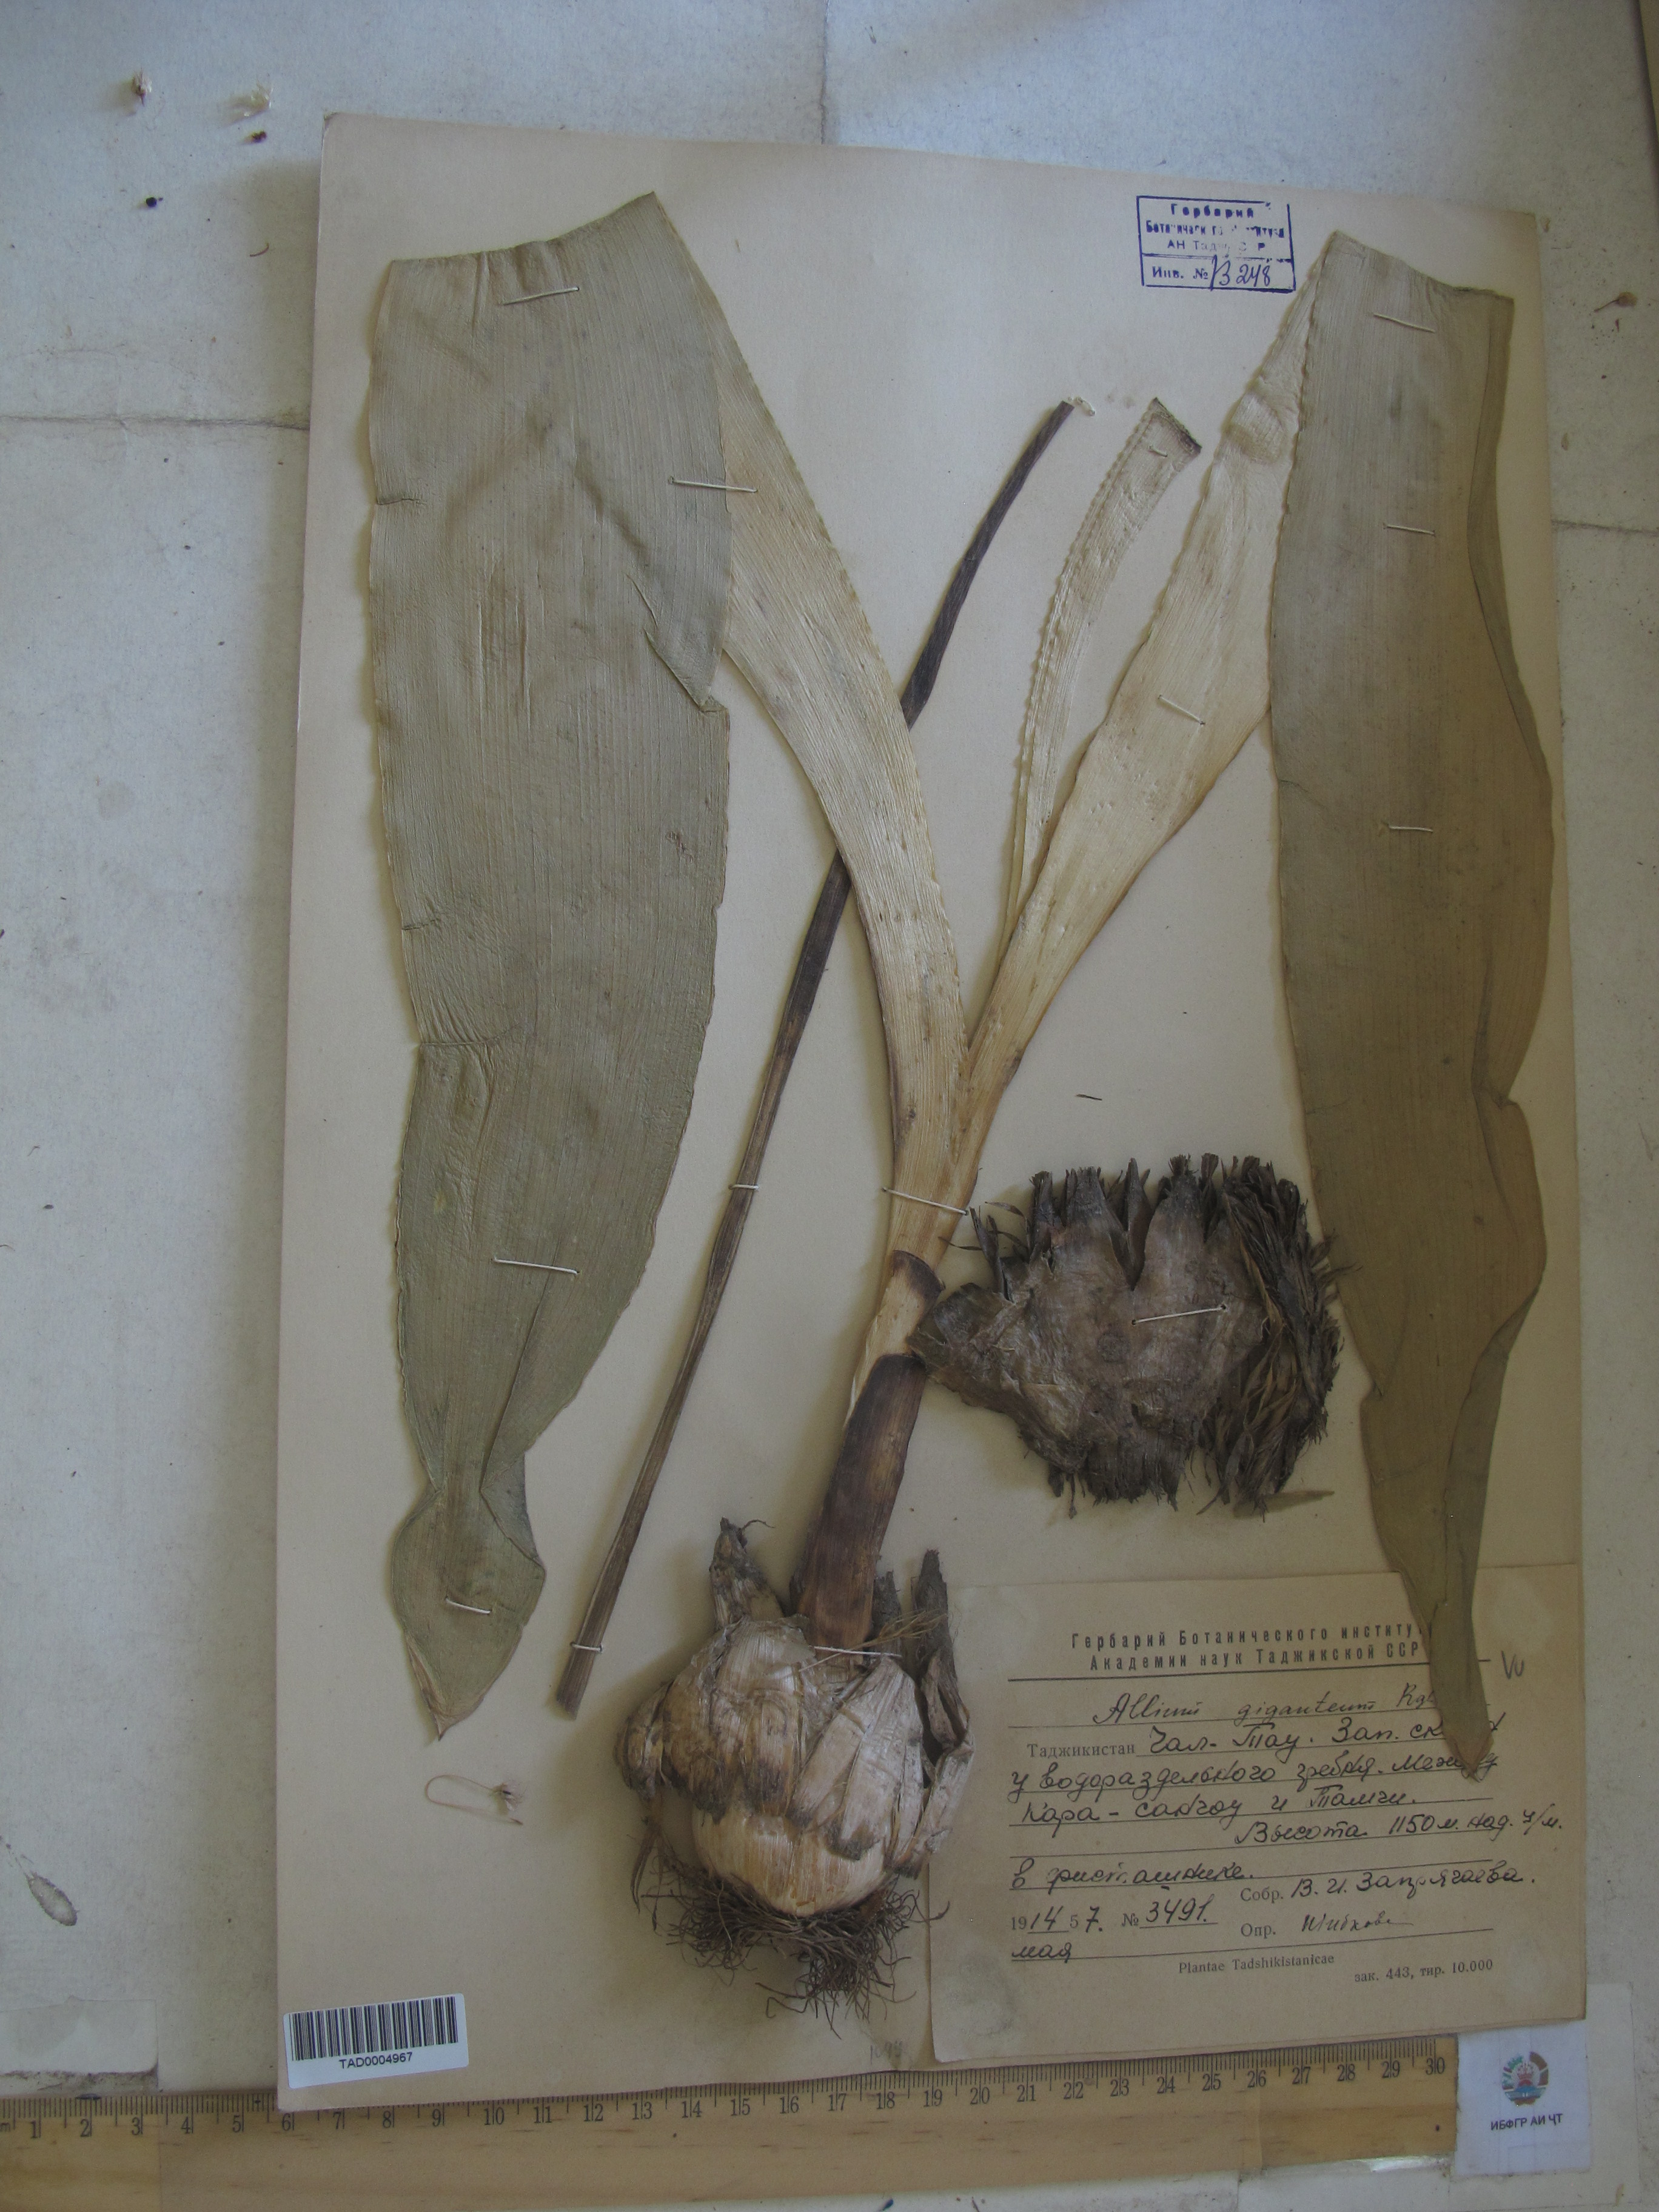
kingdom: Plantae
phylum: Tracheophyta
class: Liliopsida
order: Asparagales
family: Amaryllidaceae
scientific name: Amaryllidaceae
